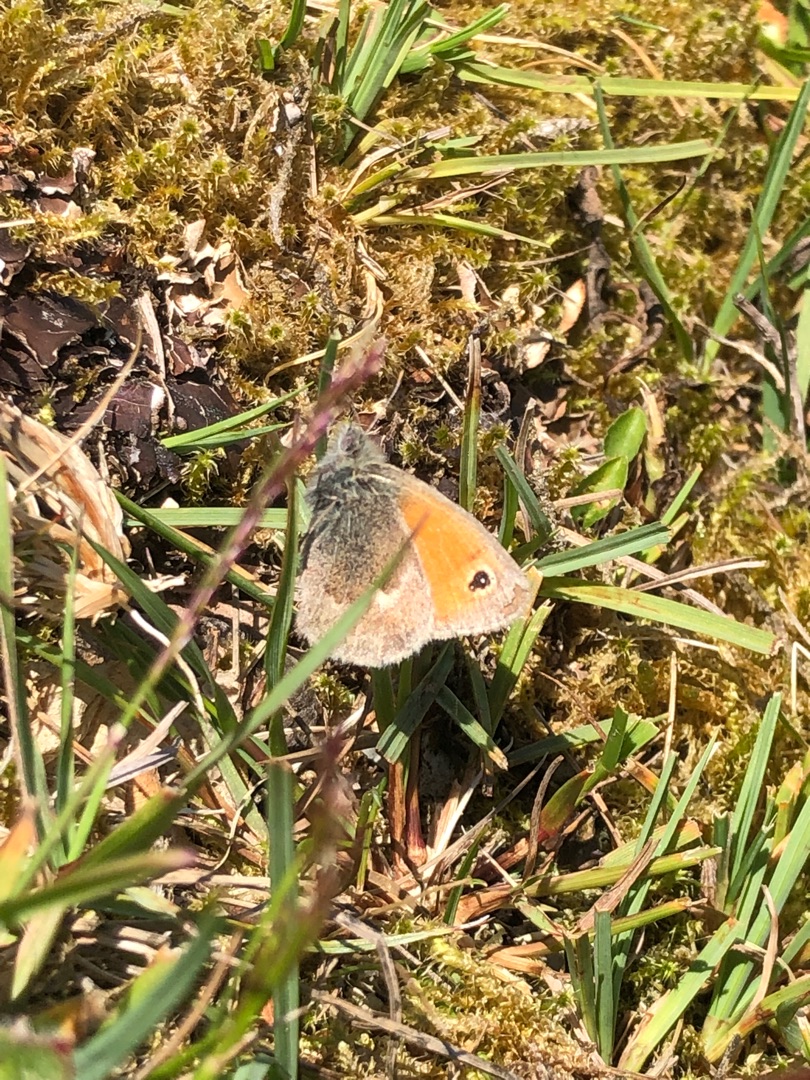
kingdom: Animalia
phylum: Arthropoda
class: Insecta
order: Lepidoptera
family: Nymphalidae
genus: Coenonympha
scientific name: Coenonympha pamphilus
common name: Okkergul randøje
